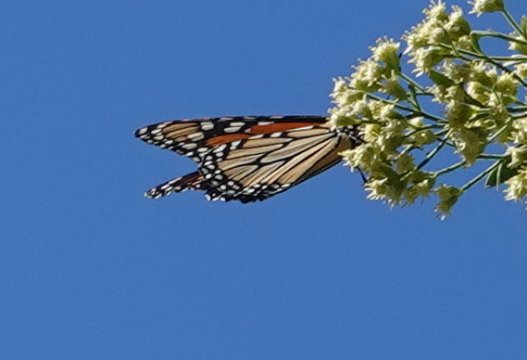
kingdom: Animalia
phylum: Arthropoda
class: Insecta
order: Lepidoptera
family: Nymphalidae
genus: Danaus
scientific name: Danaus plexippus
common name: Monarch
